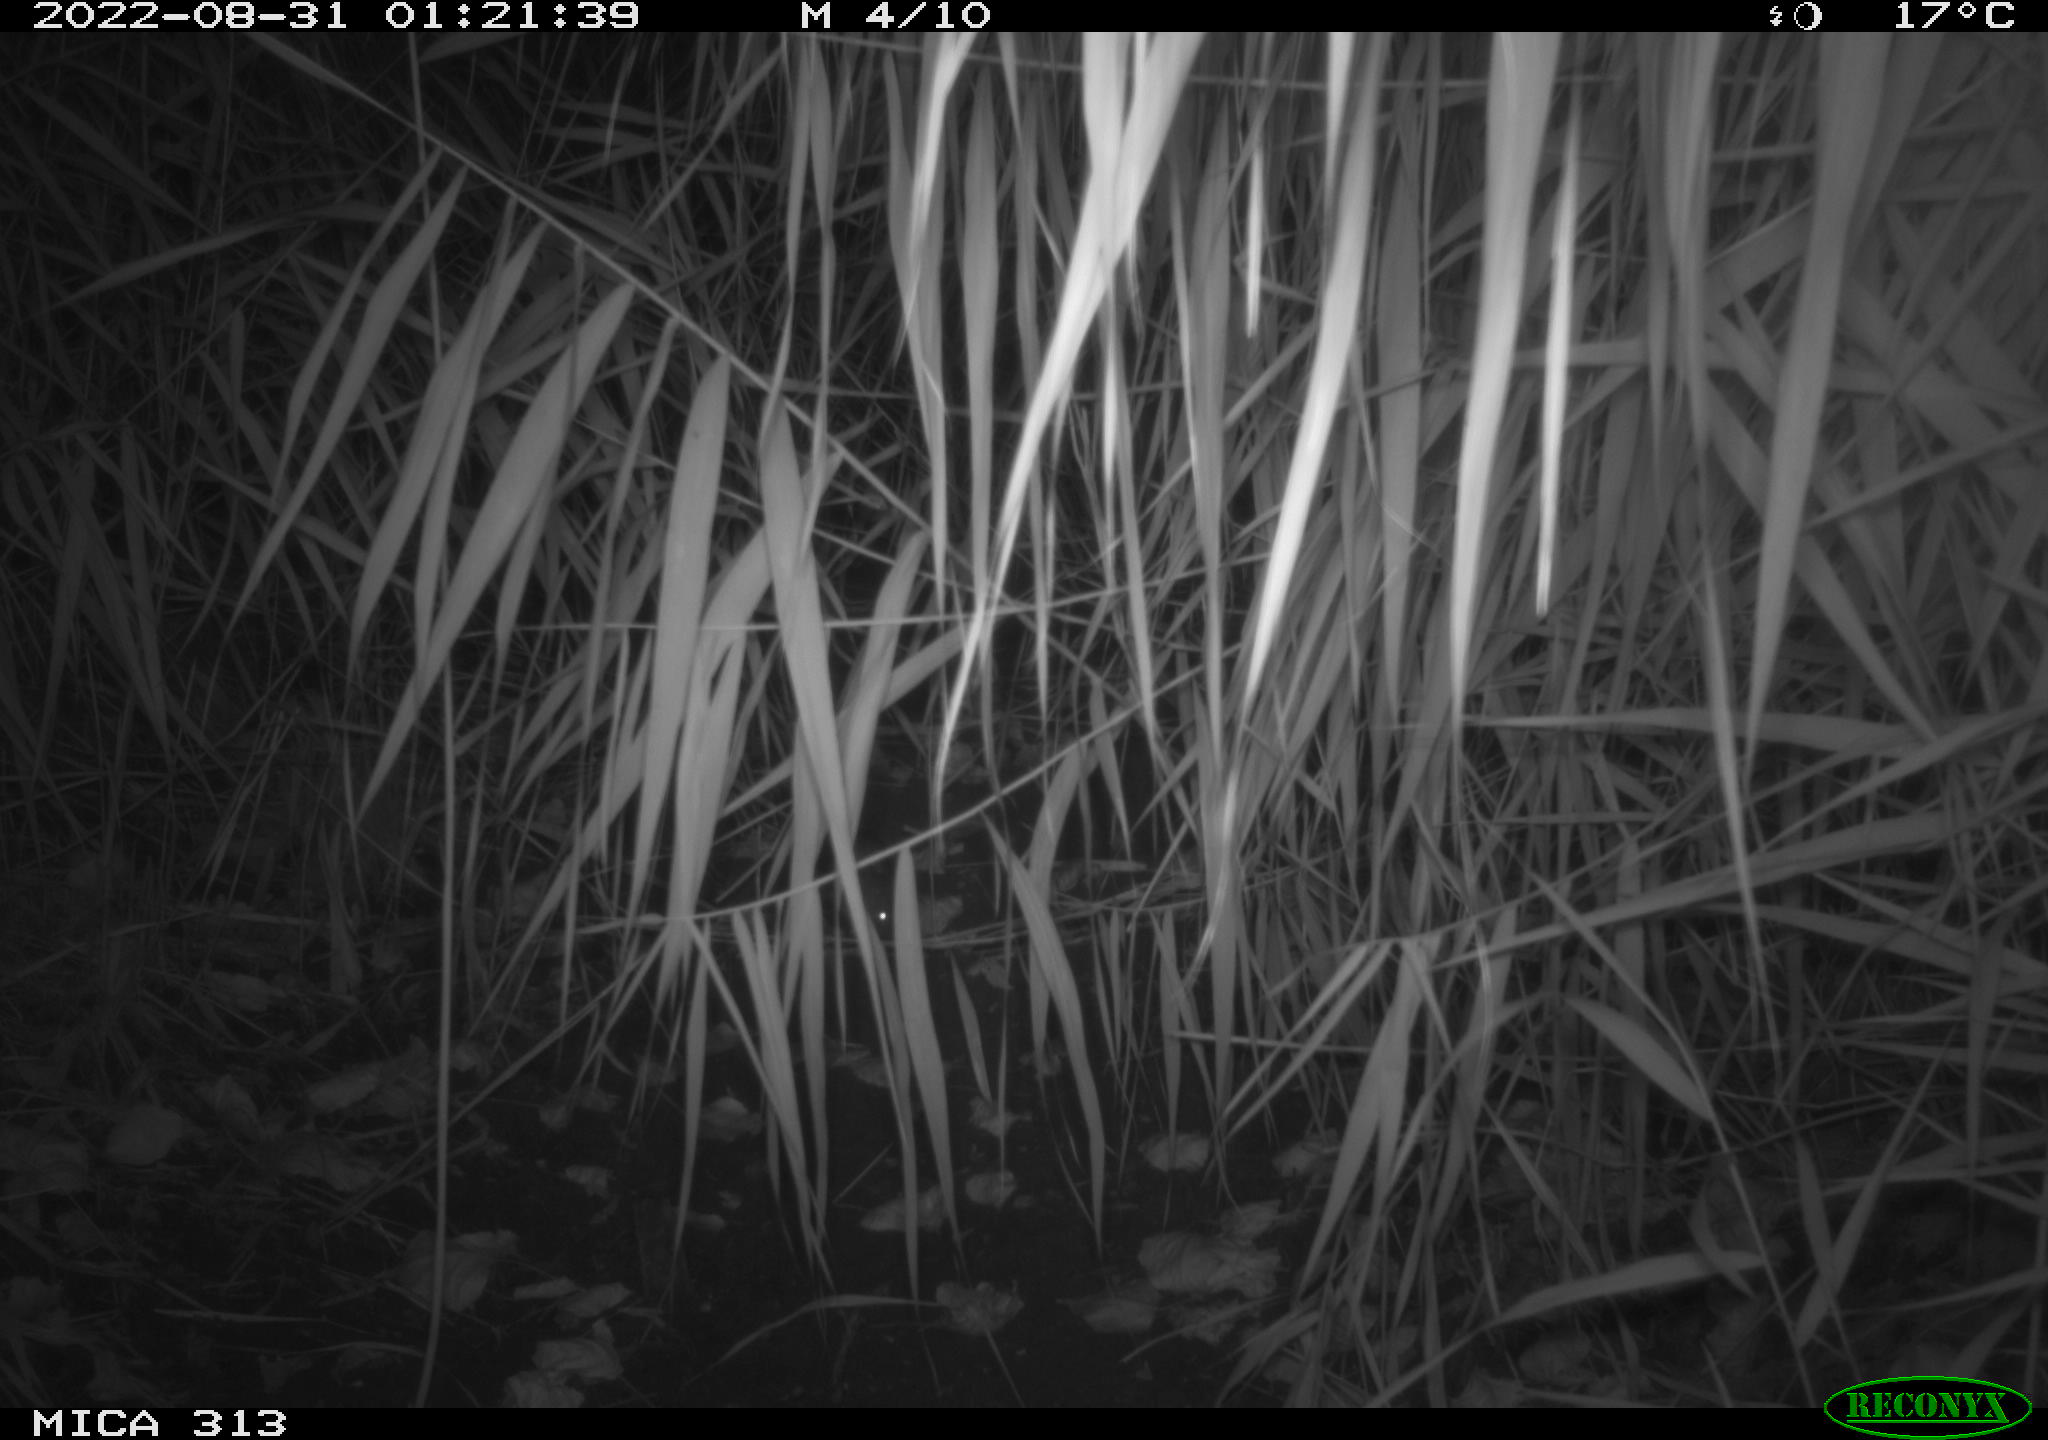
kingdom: Animalia
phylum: Chordata
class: Mammalia
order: Rodentia
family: Muridae
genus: Rattus
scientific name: Rattus norvegicus
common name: Brown rat
